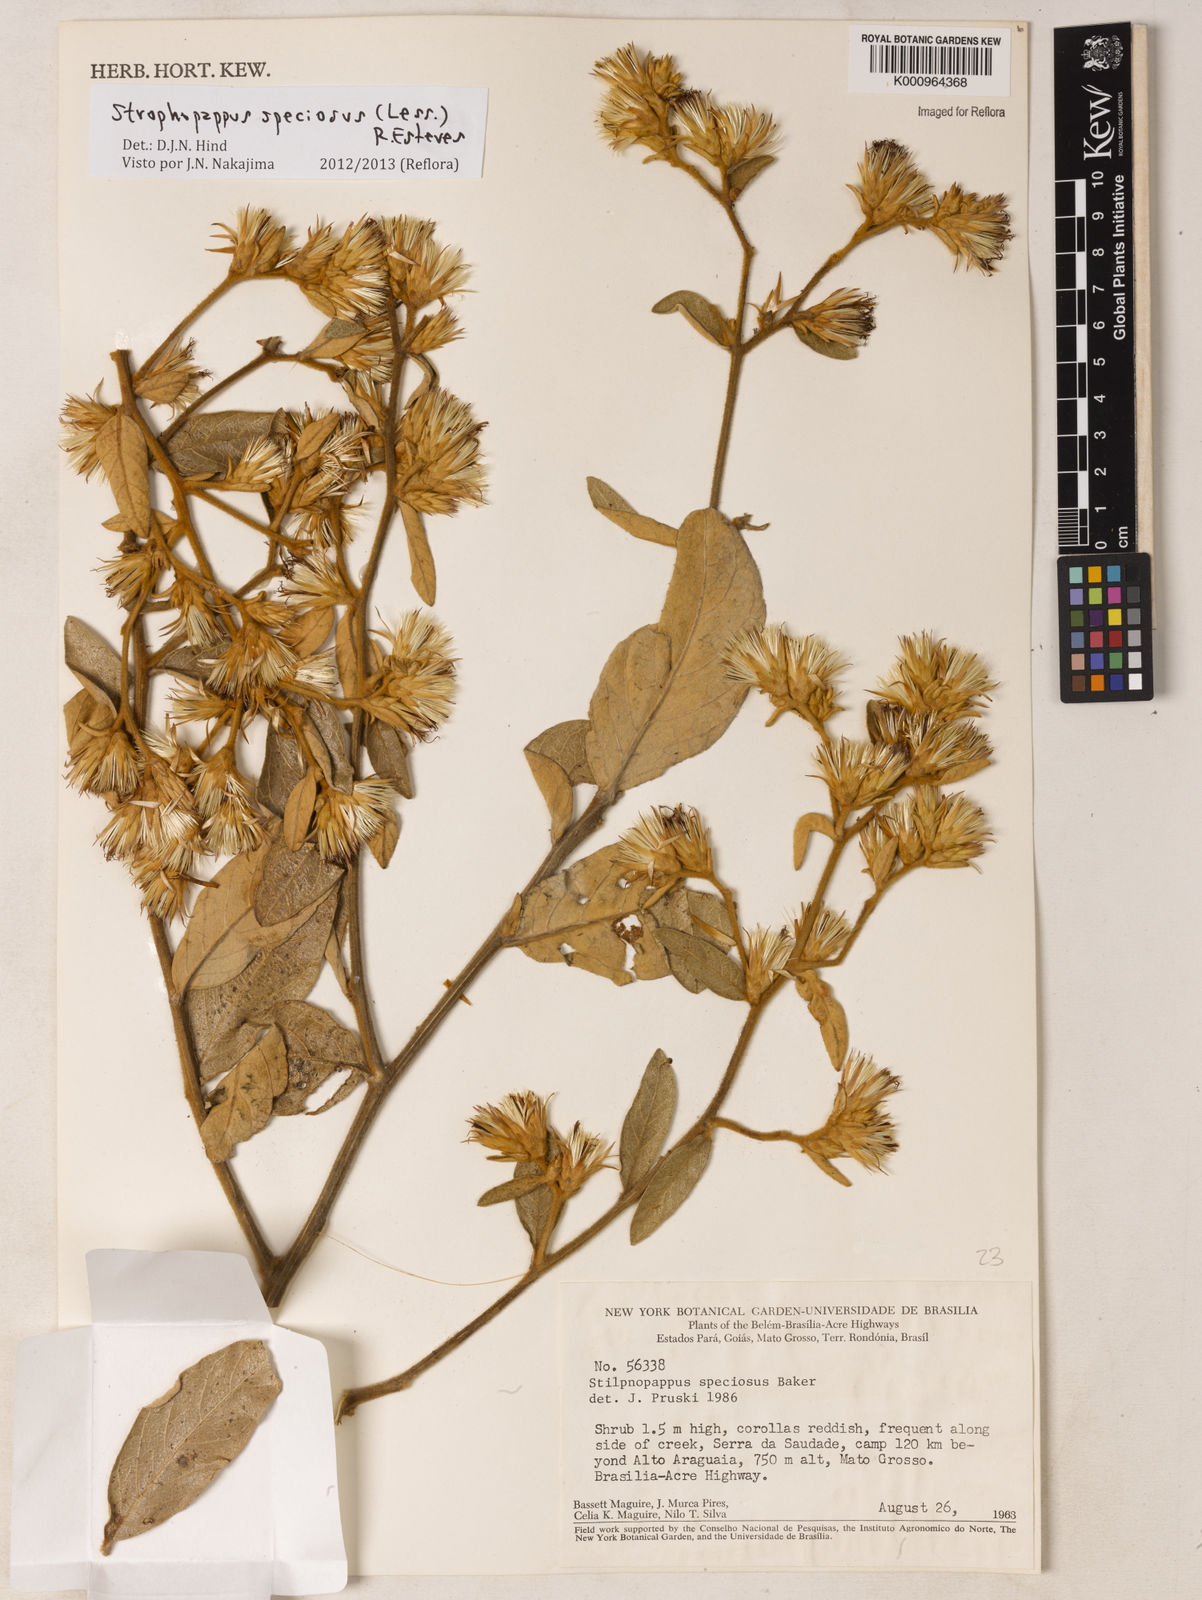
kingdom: Plantae
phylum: Tracheophyta
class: Magnoliopsida
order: Asterales
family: Asteraceae
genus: Stilpnopappus
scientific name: Stilpnopappus speciosus
